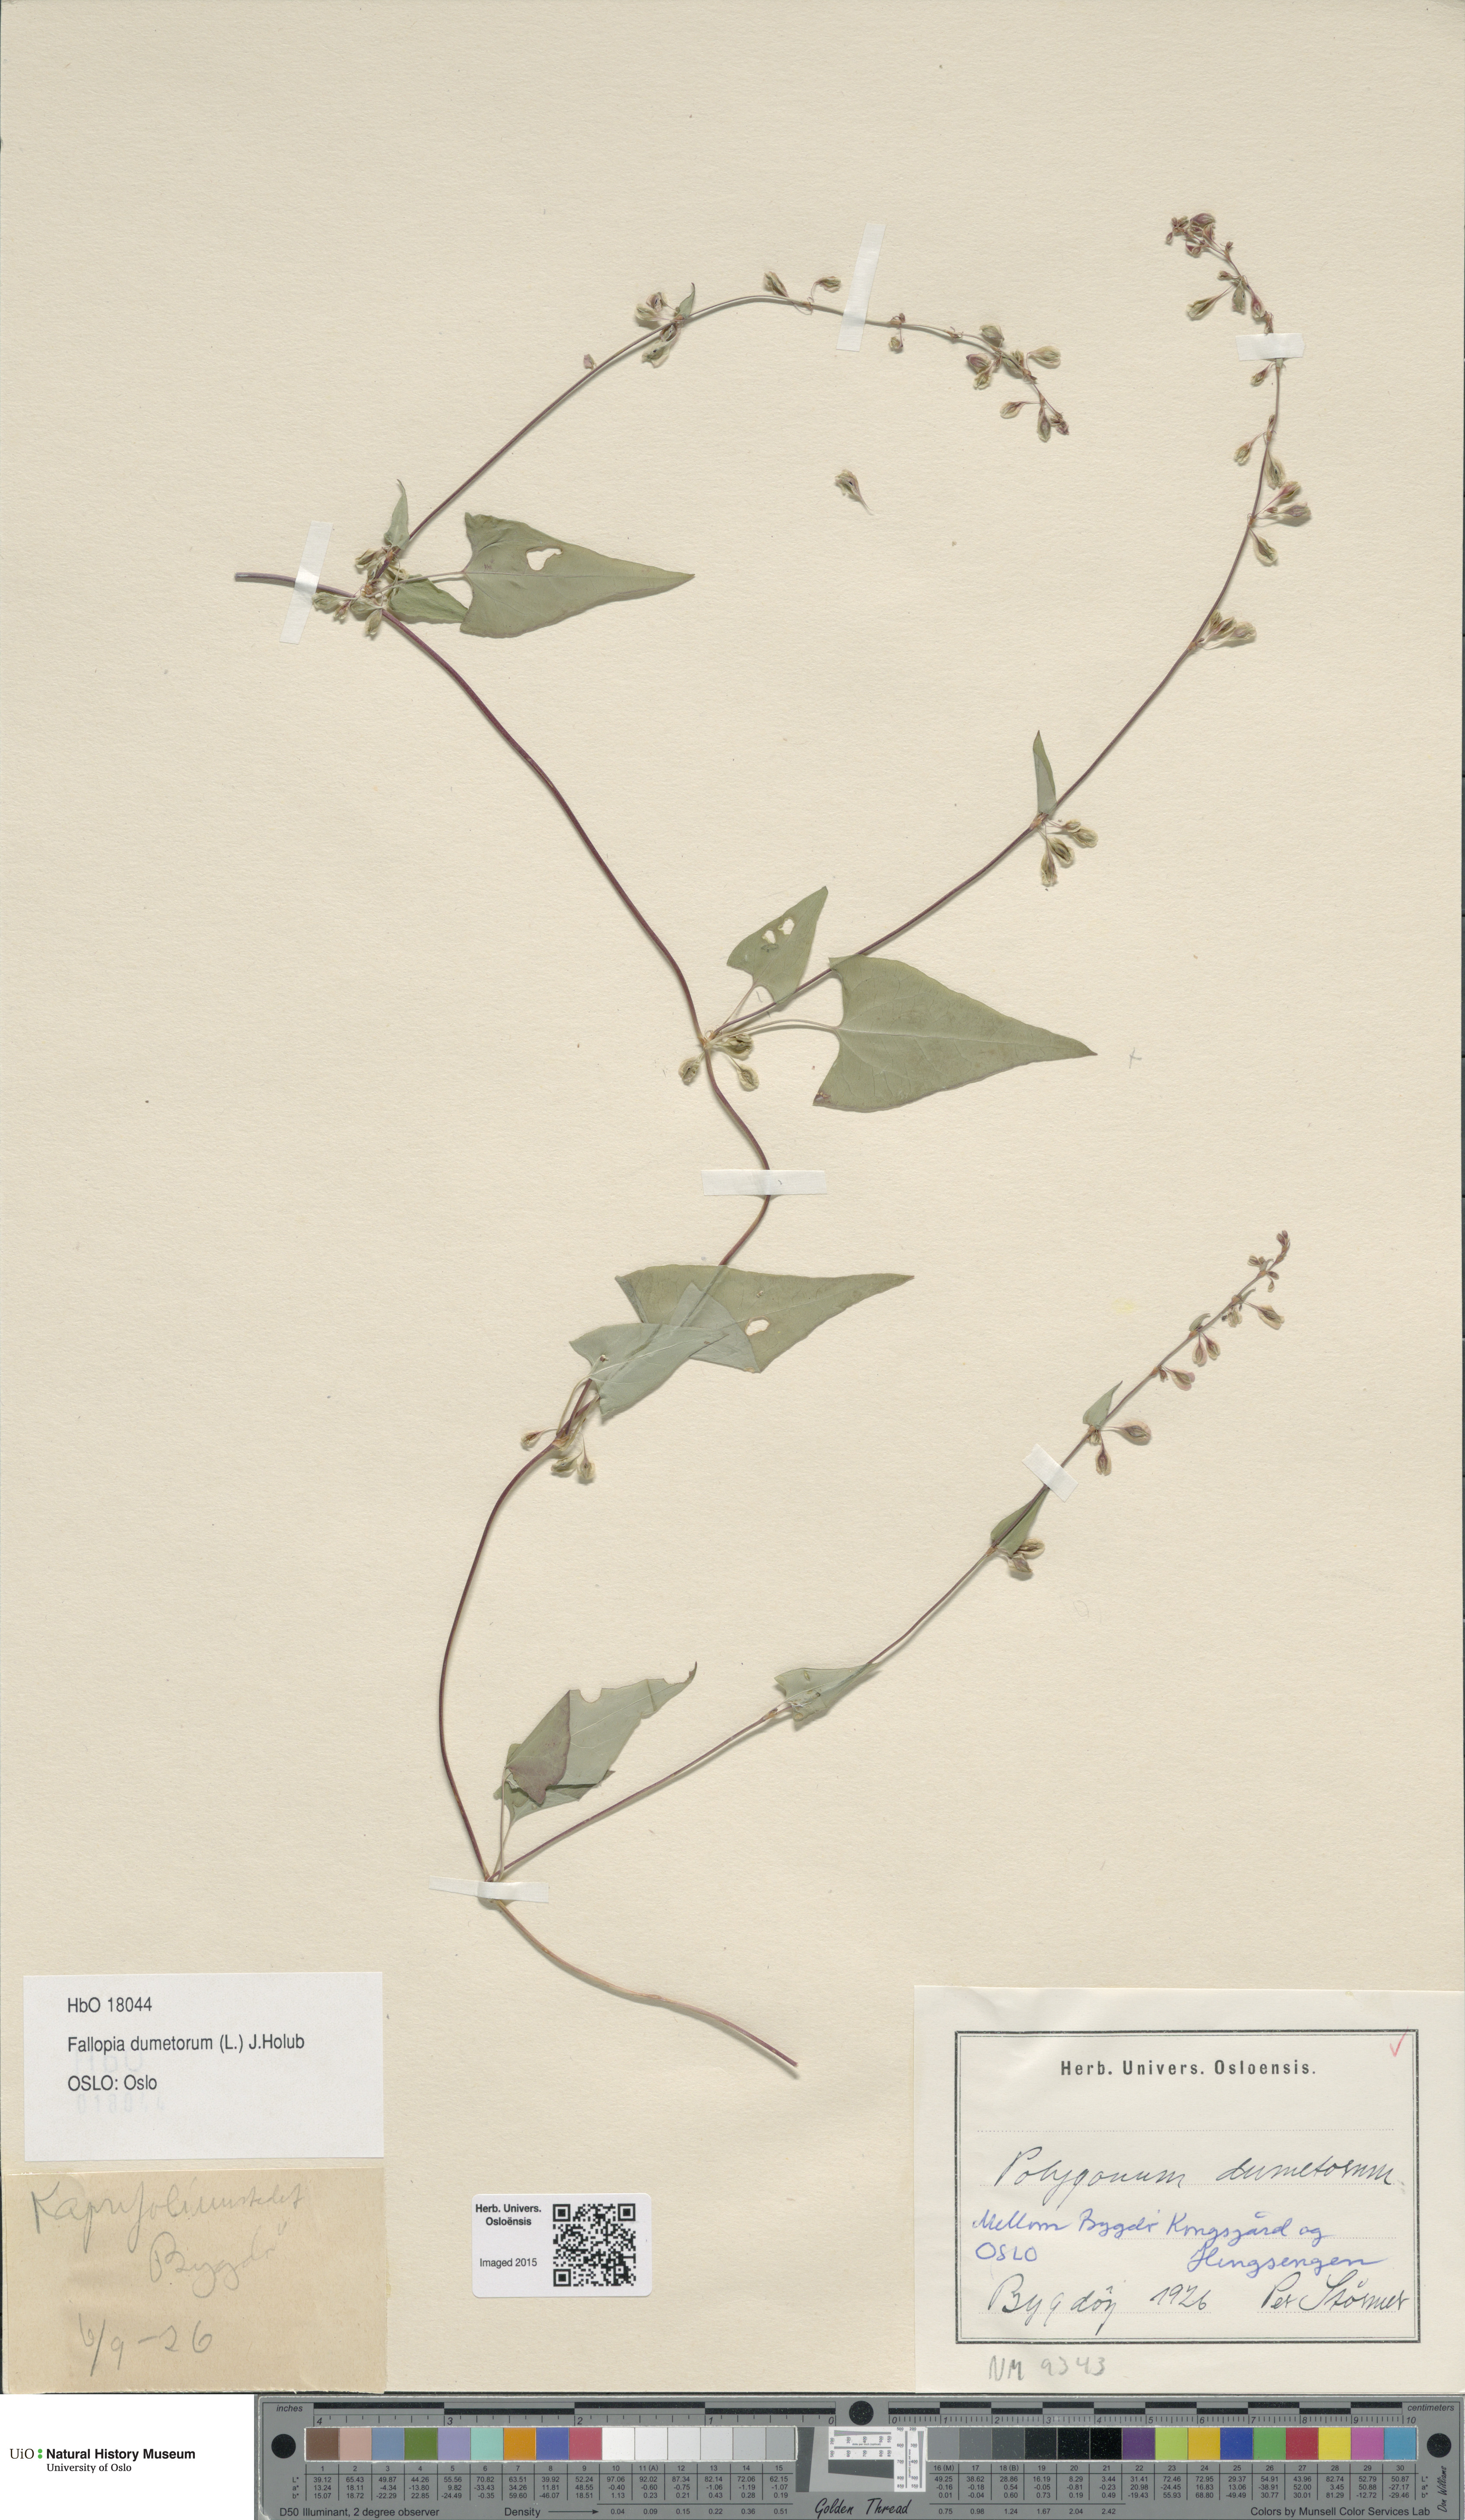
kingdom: Plantae
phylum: Tracheophyta
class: Magnoliopsida
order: Caryophyllales
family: Polygonaceae
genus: Fallopia
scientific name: Fallopia dumetorum
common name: Copse-bindweed
